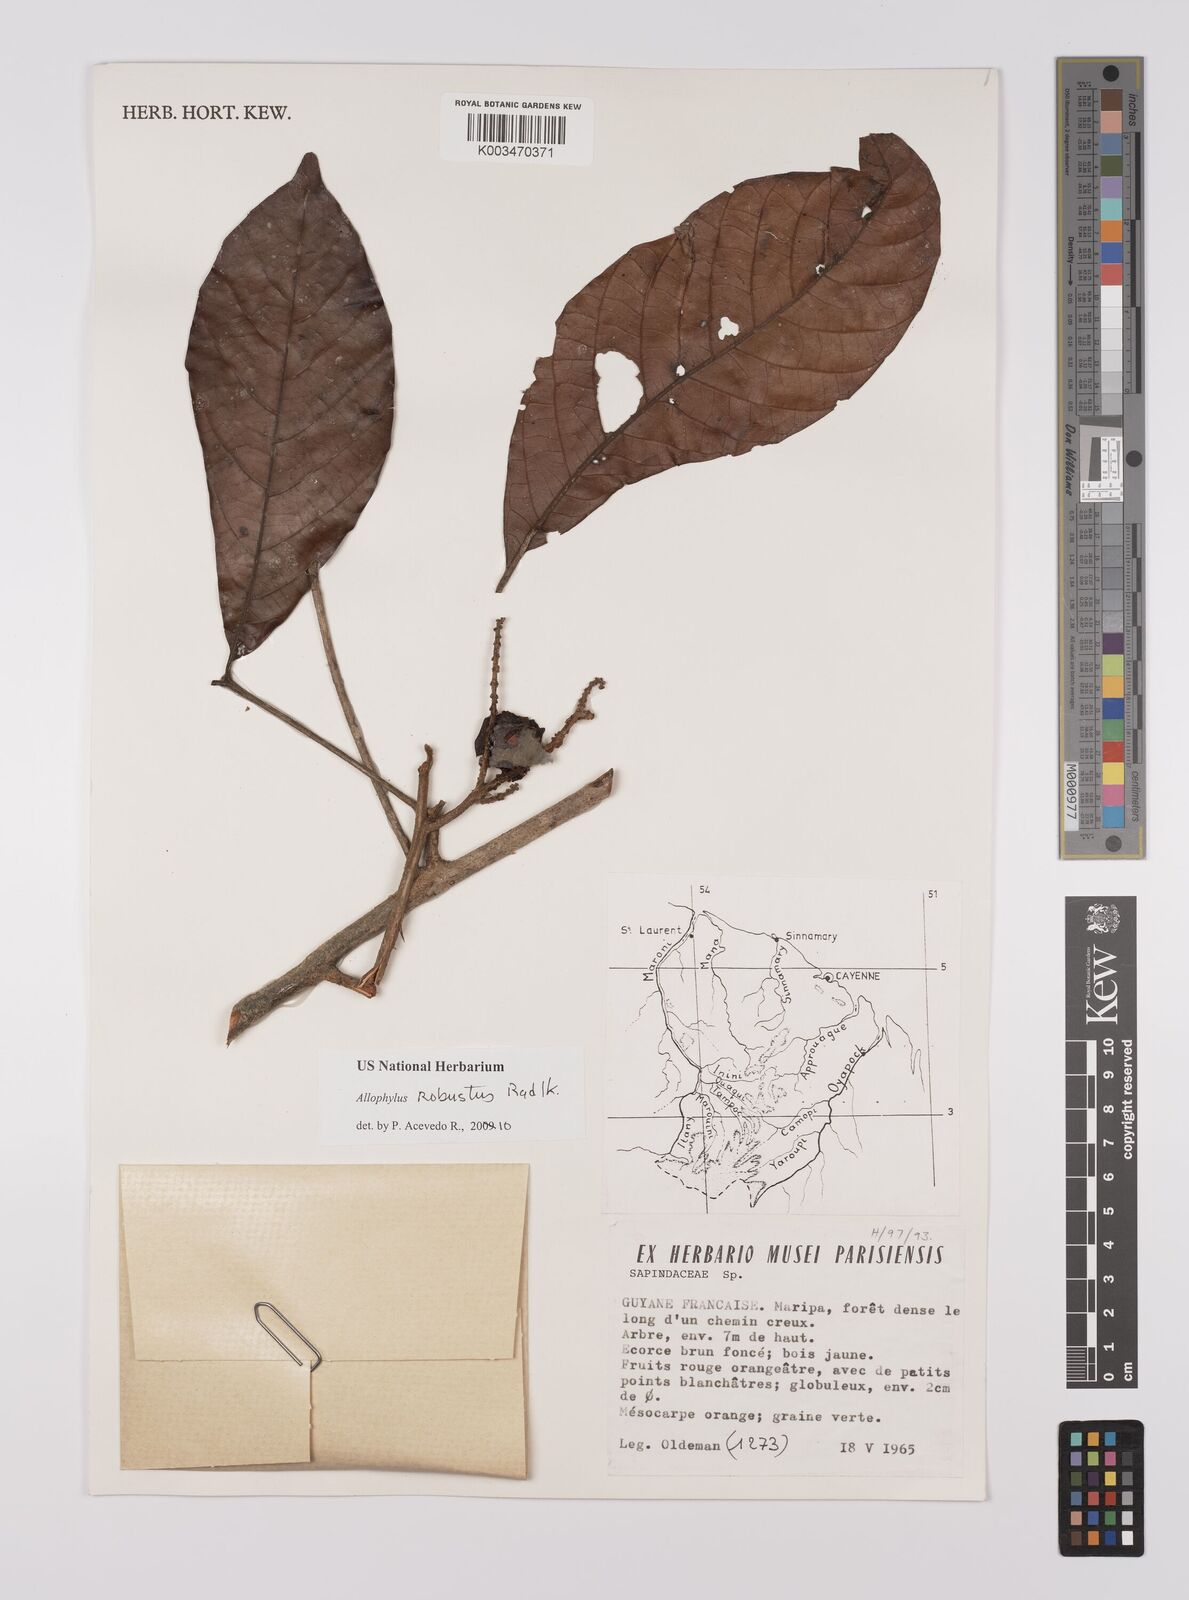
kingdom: Plantae
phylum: Tracheophyta
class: Magnoliopsida
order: Sapindales
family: Sapindaceae
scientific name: Sapindaceae
